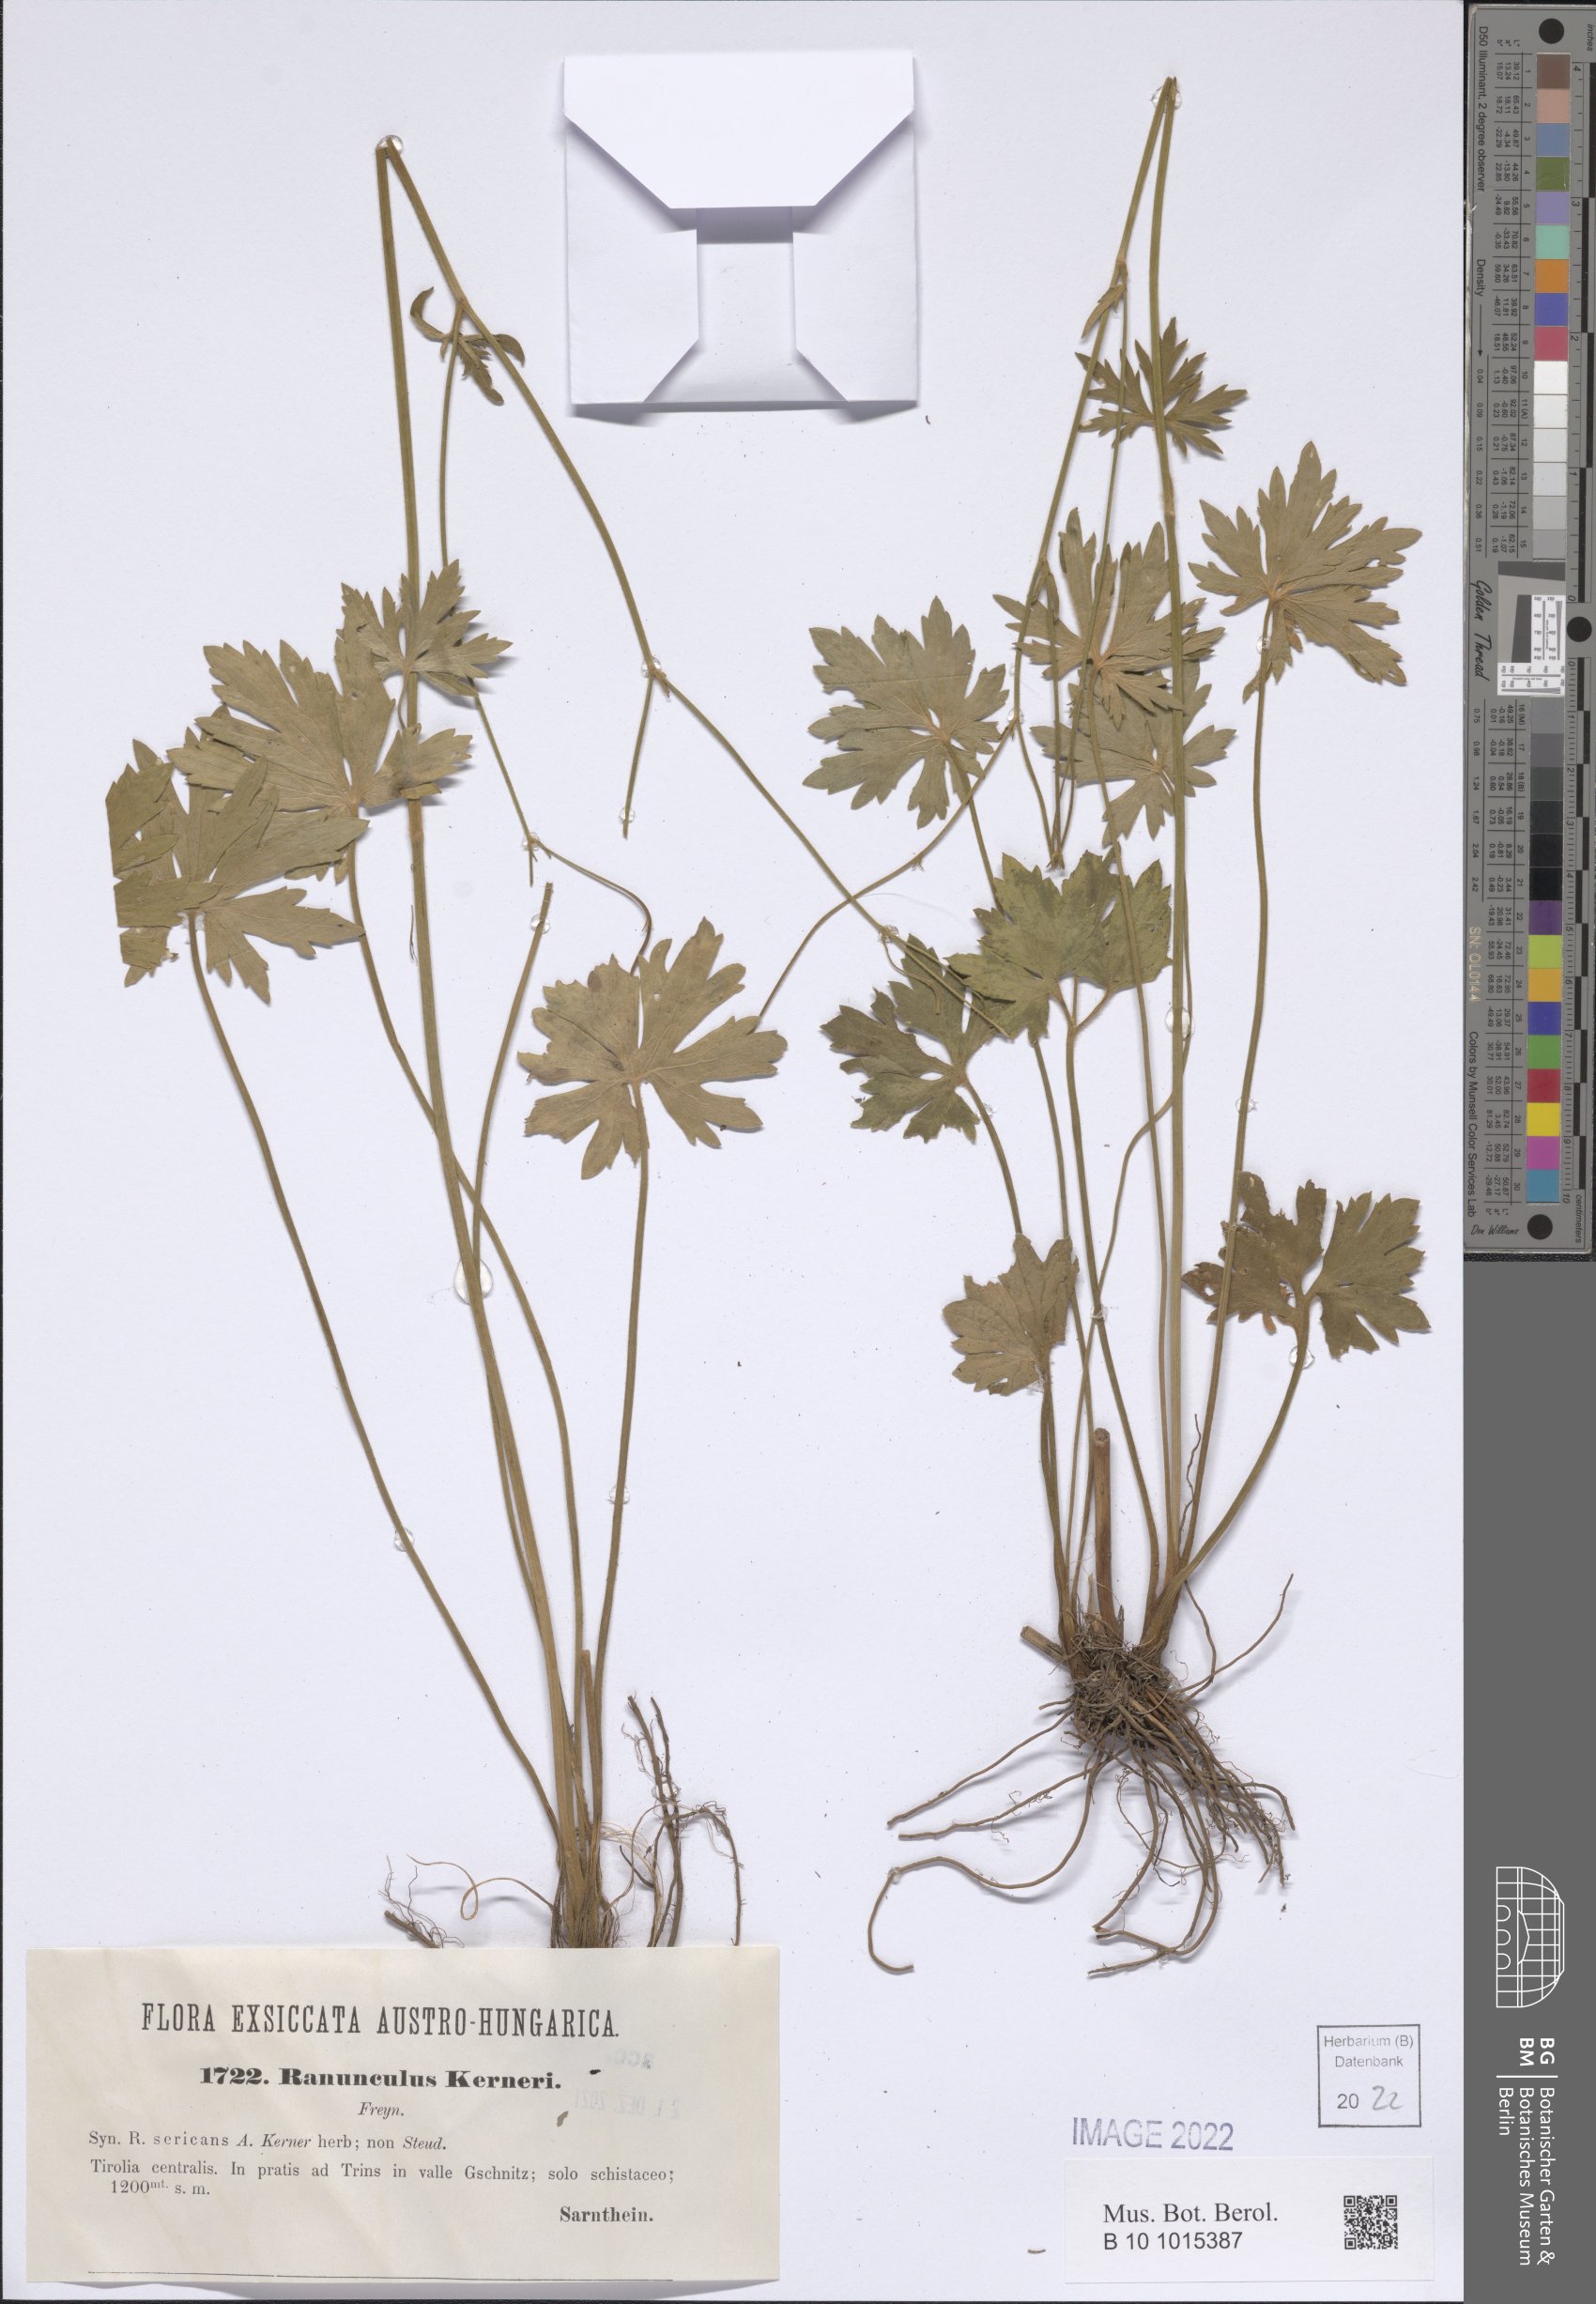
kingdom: Plantae
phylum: Tracheophyta
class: Magnoliopsida
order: Ranunculales
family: Ranunculaceae
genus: Ranunculus
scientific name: Ranunculus acris
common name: Meadow buttercup
